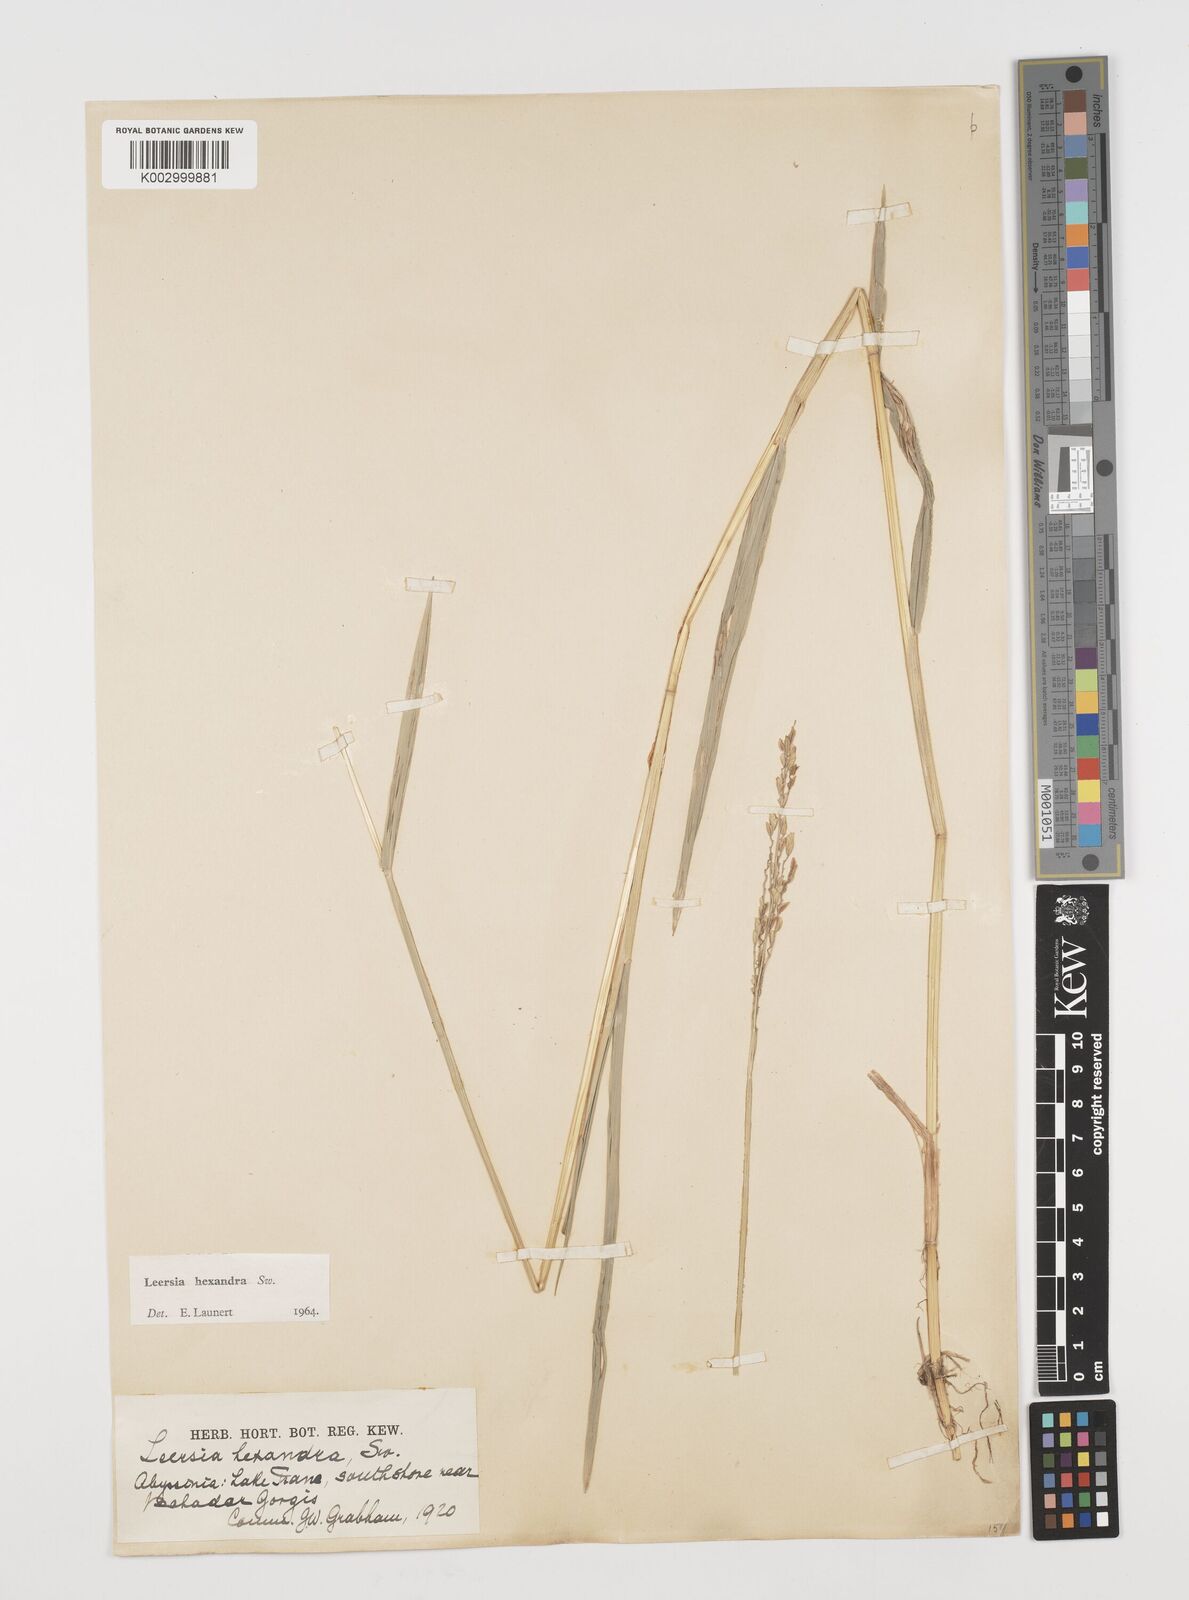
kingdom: Plantae
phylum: Tracheophyta
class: Liliopsida
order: Poales
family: Poaceae
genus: Leersia
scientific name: Leersia hexandra
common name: Southern cut grass
